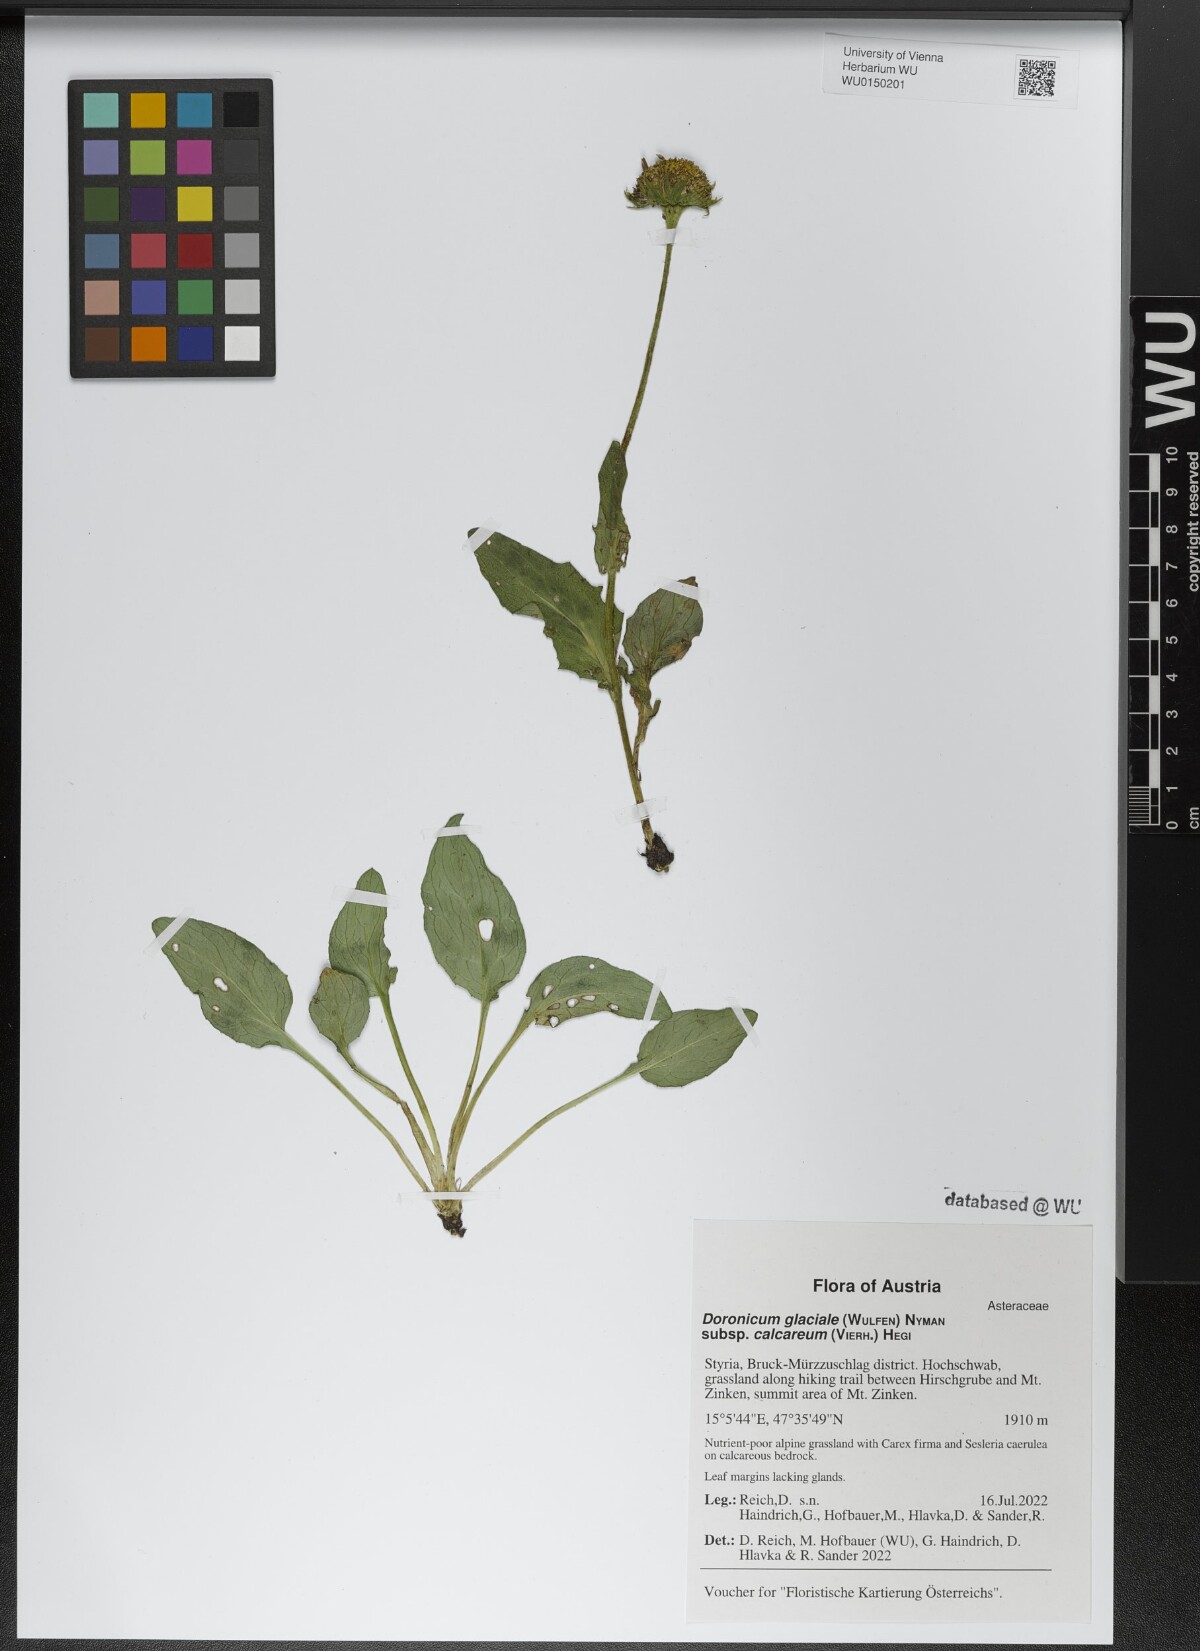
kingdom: Plantae
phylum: Tracheophyta
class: Magnoliopsida
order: Asterales
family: Asteraceae
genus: Doronicum
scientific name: Doronicum glaciale
